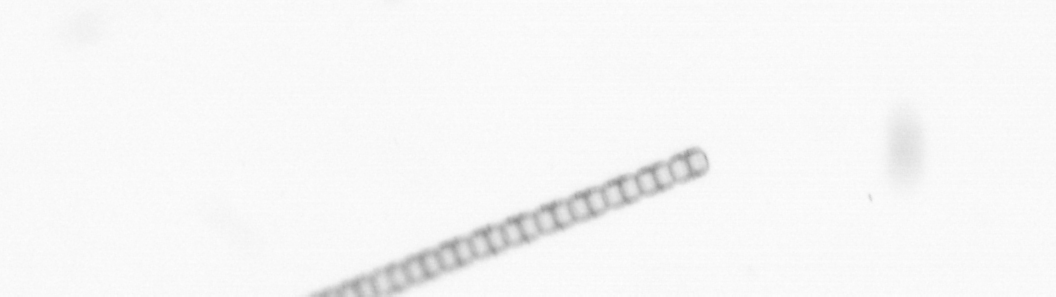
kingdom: Chromista
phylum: Ochrophyta
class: Bacillariophyceae
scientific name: Bacillariophyceae
